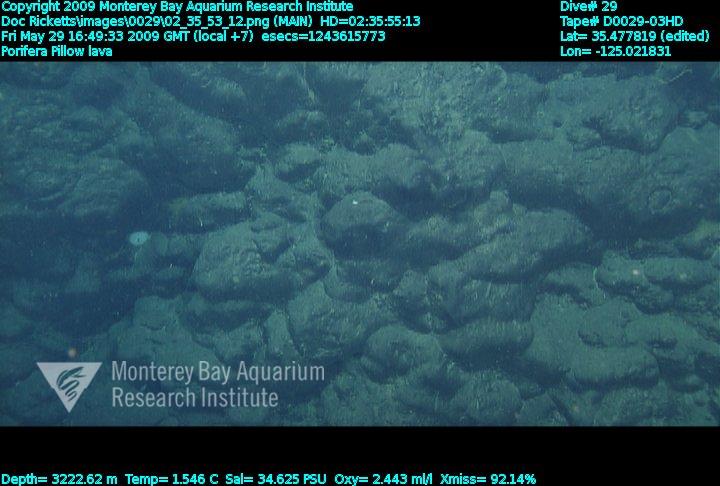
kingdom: Animalia
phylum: Porifera
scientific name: Porifera
